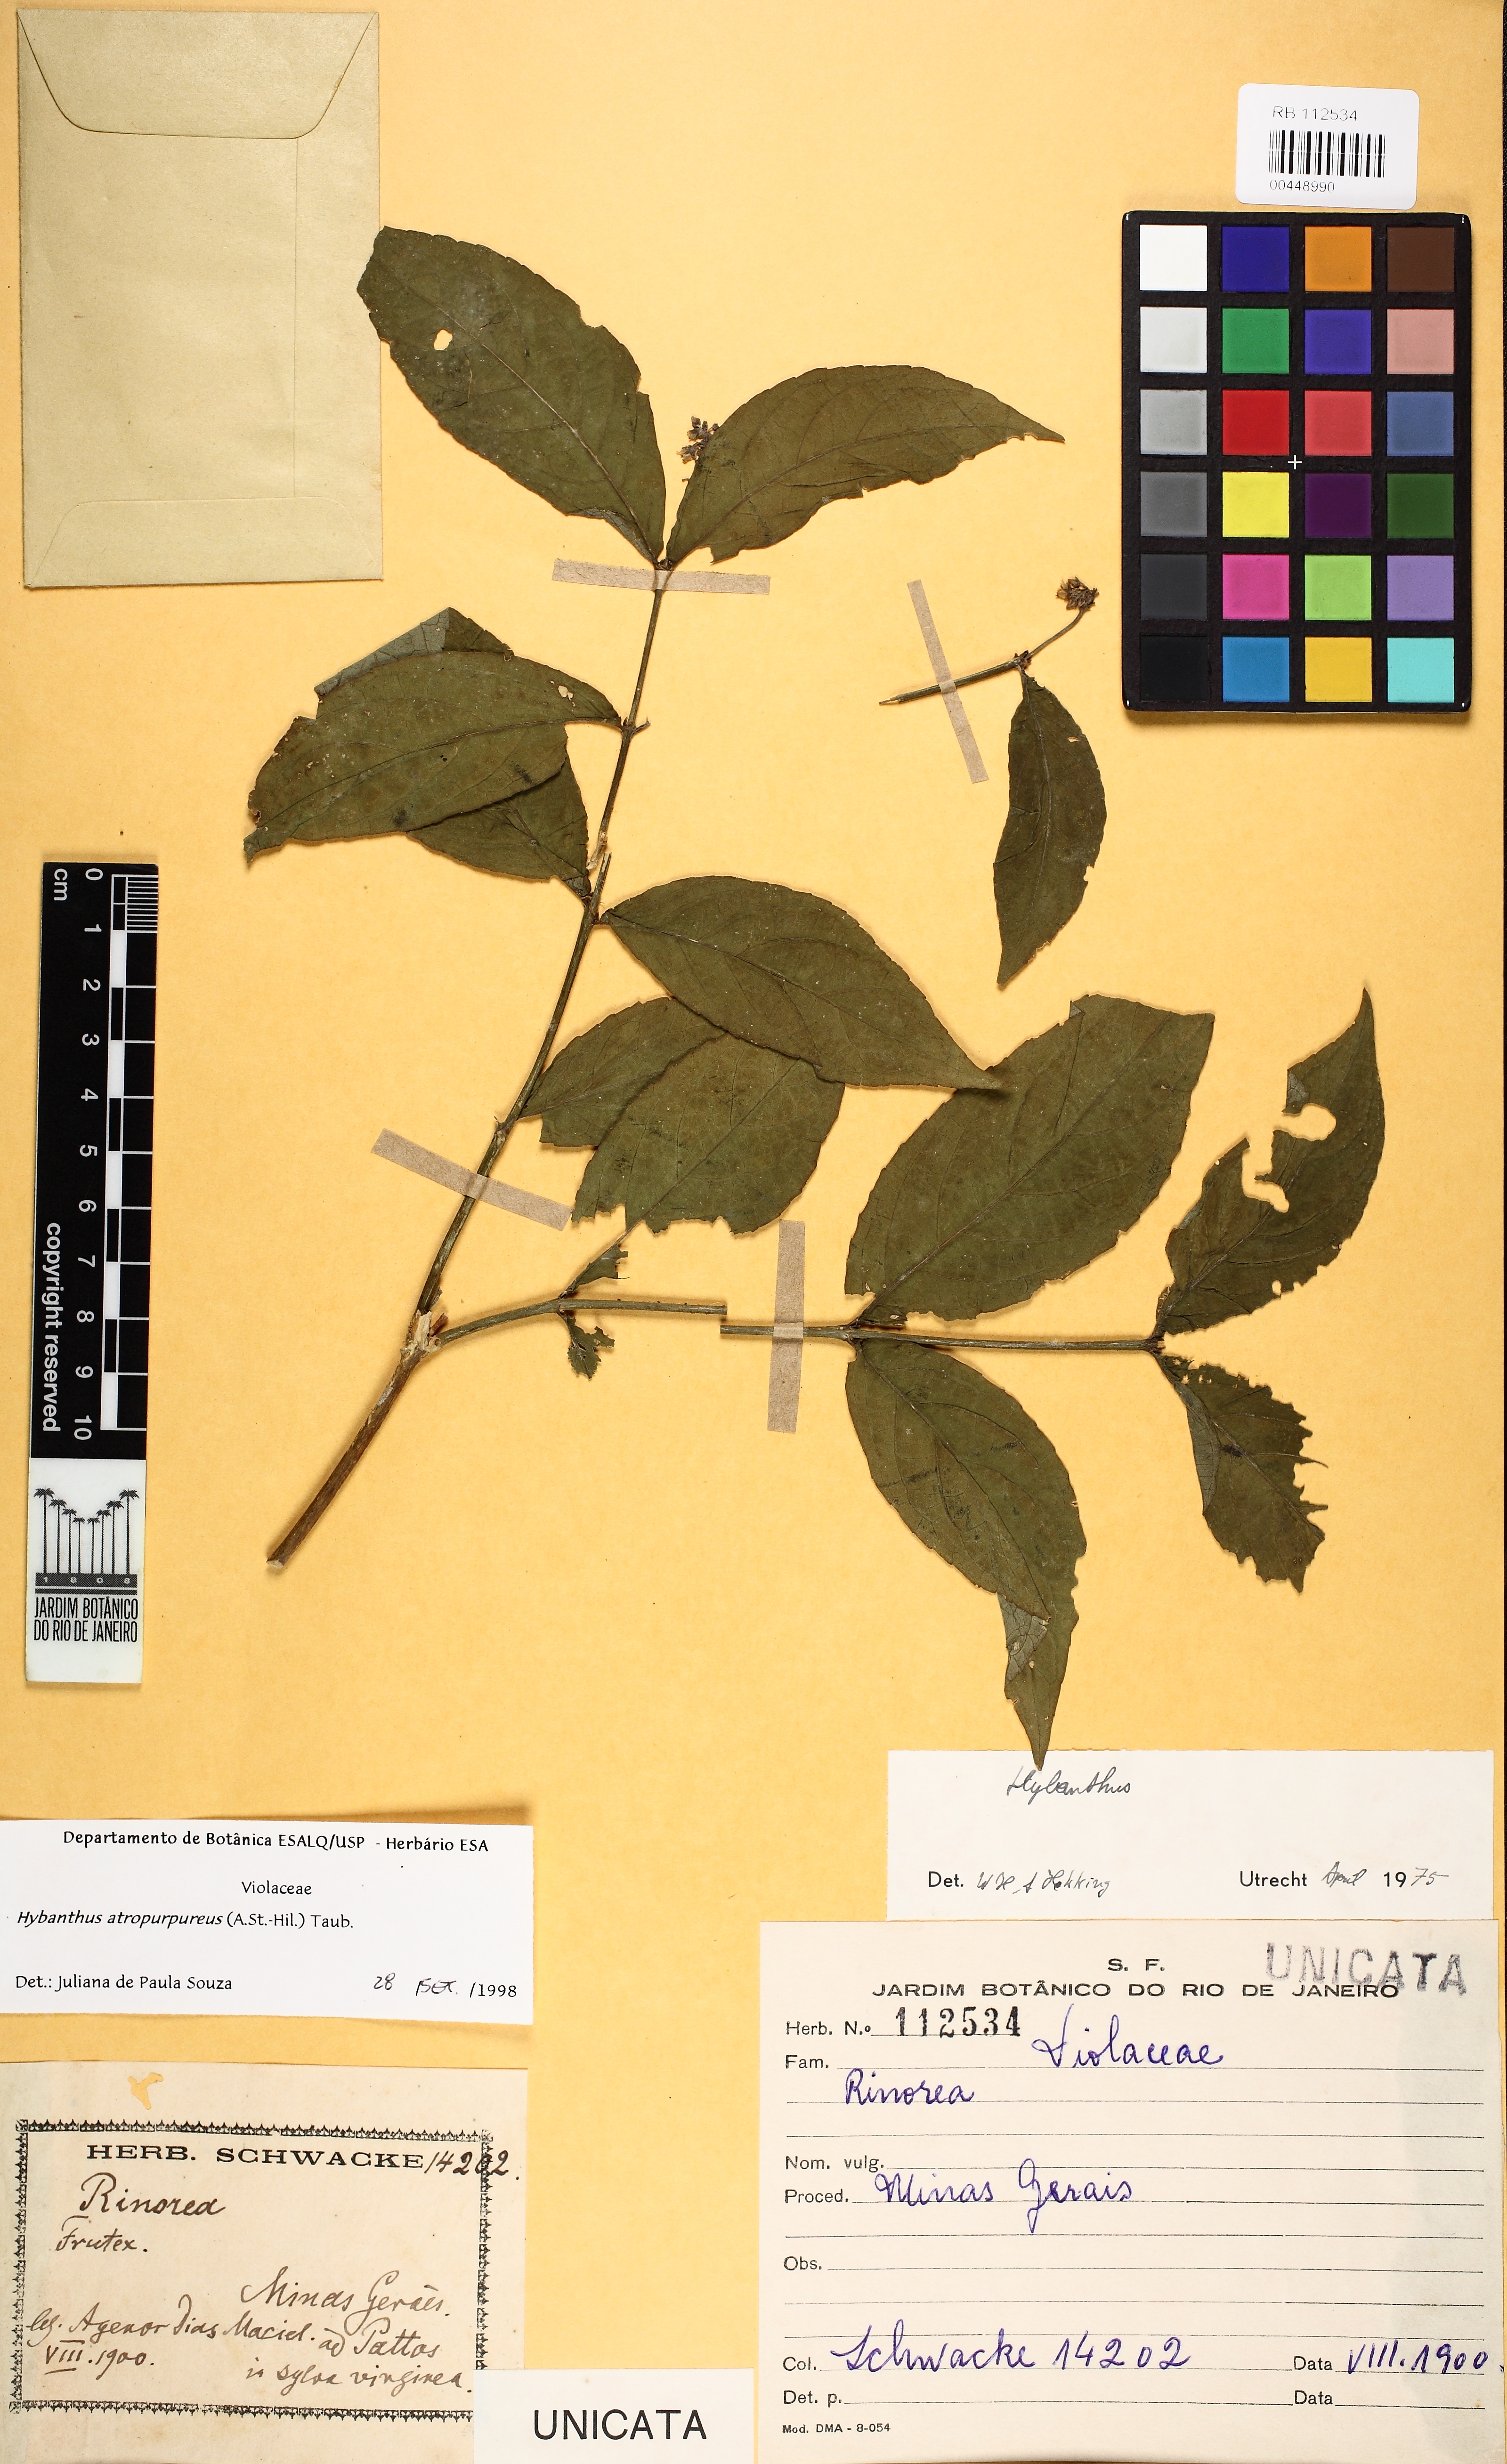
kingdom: Plantae
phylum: Tracheophyta
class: Magnoliopsida
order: Malpighiales
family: Violaceae
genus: Pombalia
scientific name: Pombalia atropurpurea
